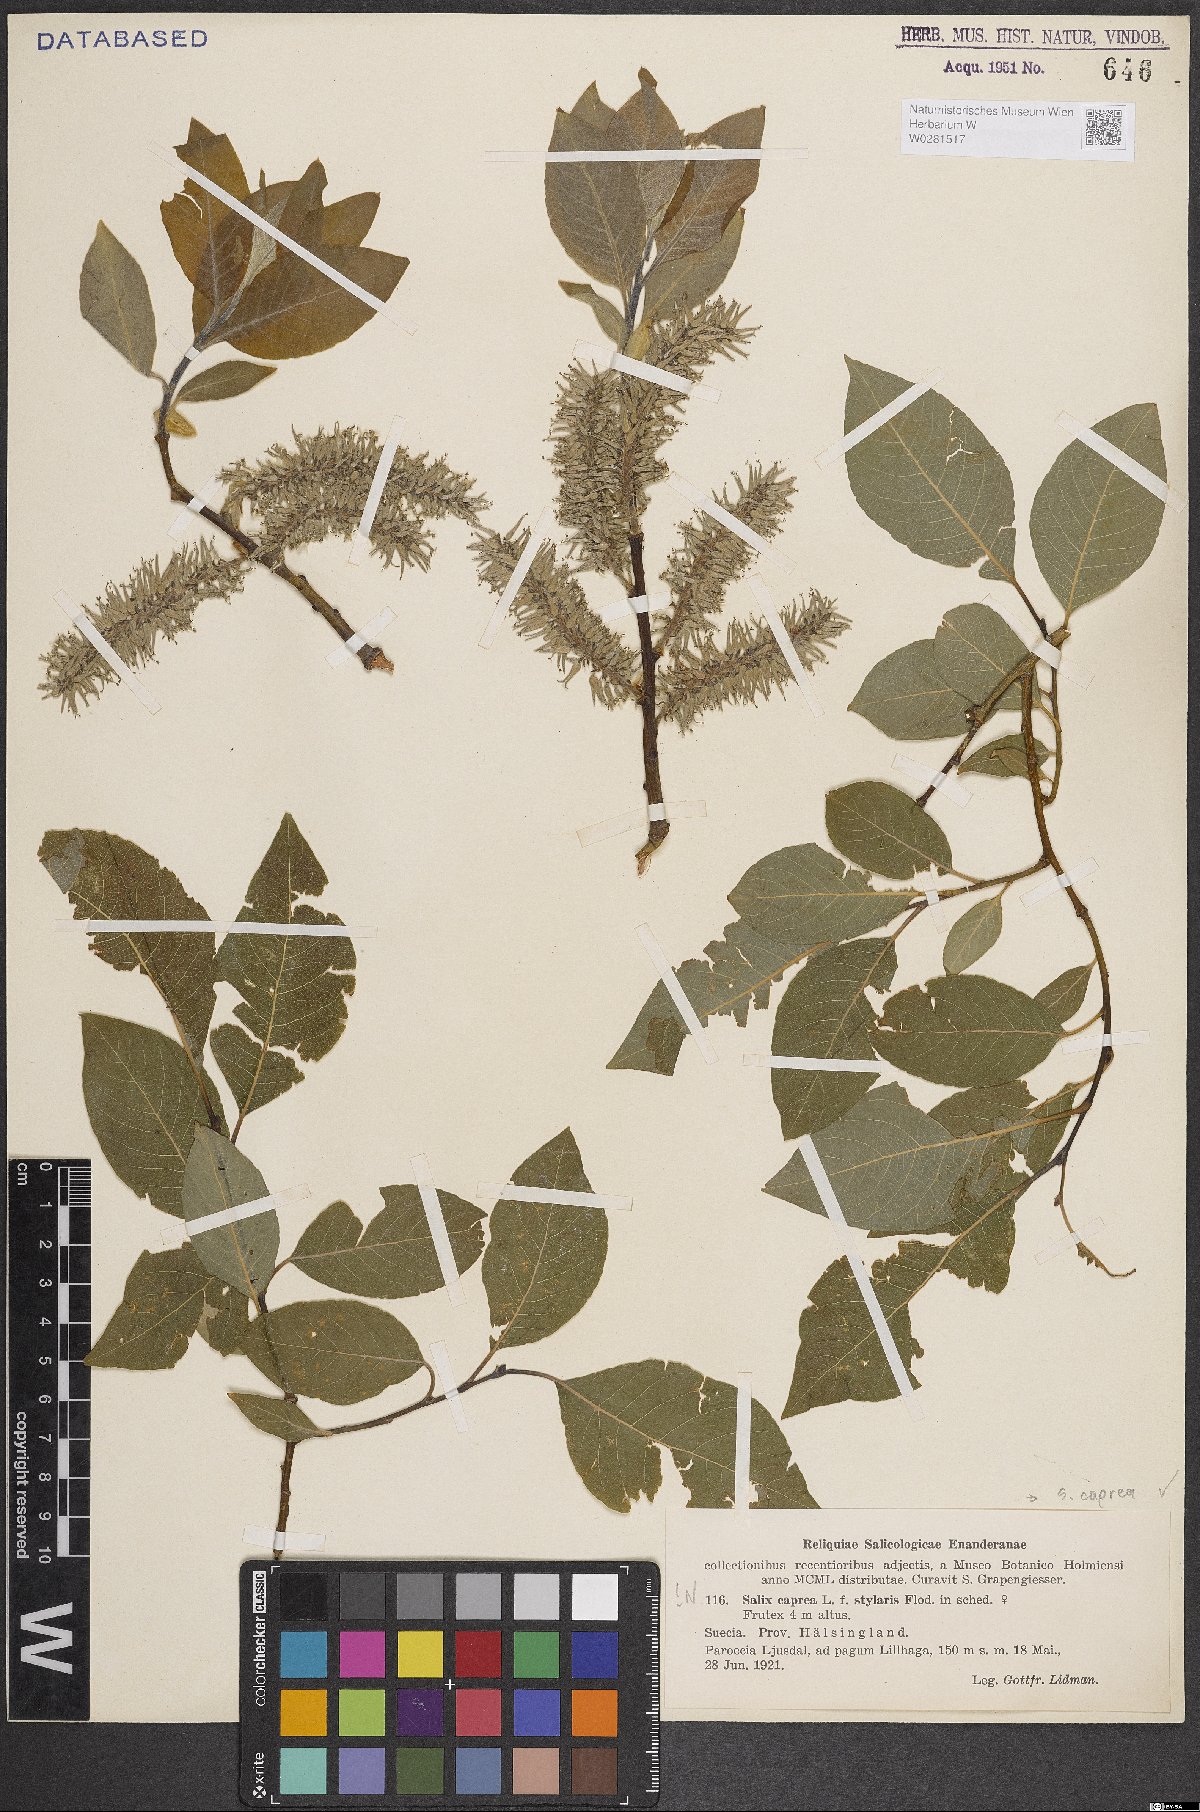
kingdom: Plantae
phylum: Tracheophyta
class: Magnoliopsida
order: Malpighiales
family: Salicaceae
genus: Salix
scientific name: Salix caprea
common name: Goat willow
